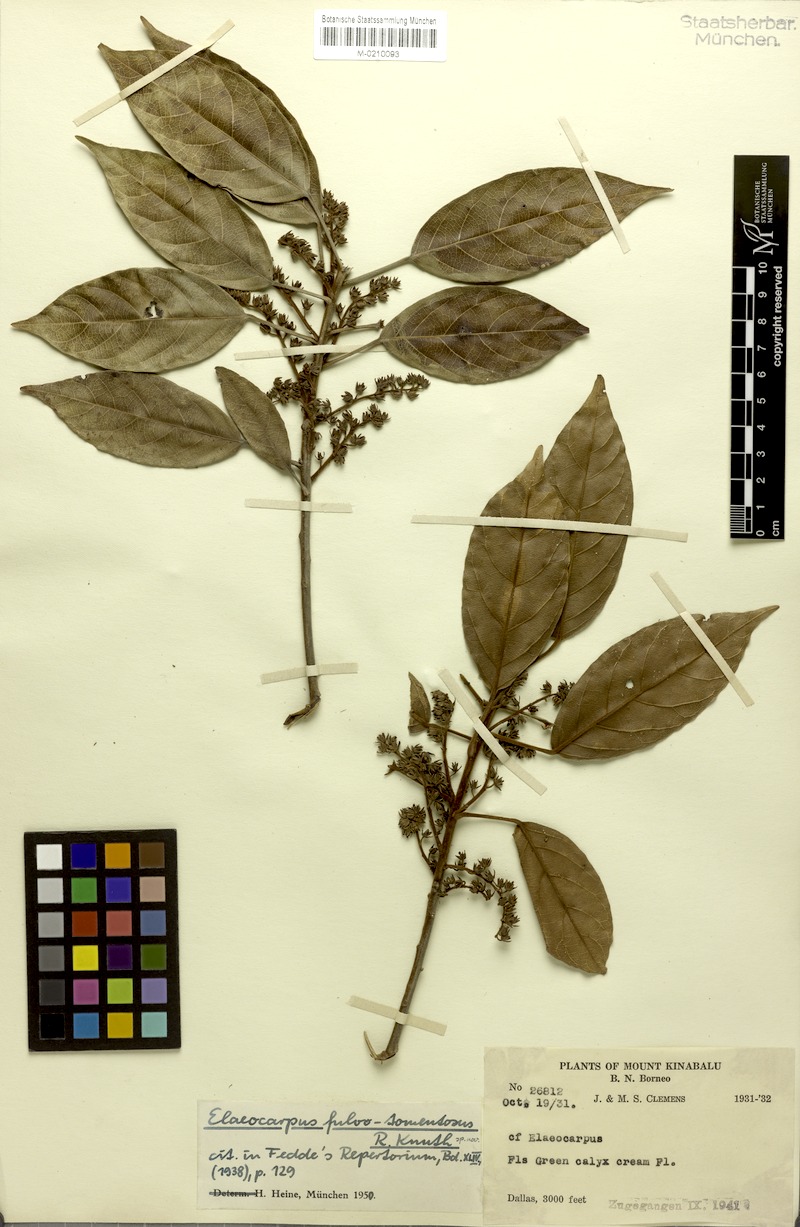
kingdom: Plantae
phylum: Tracheophyta
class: Magnoliopsida
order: Oxalidales
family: Elaeocarpaceae
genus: Elaeocarpus
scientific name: Elaeocarpus ferrugineus
